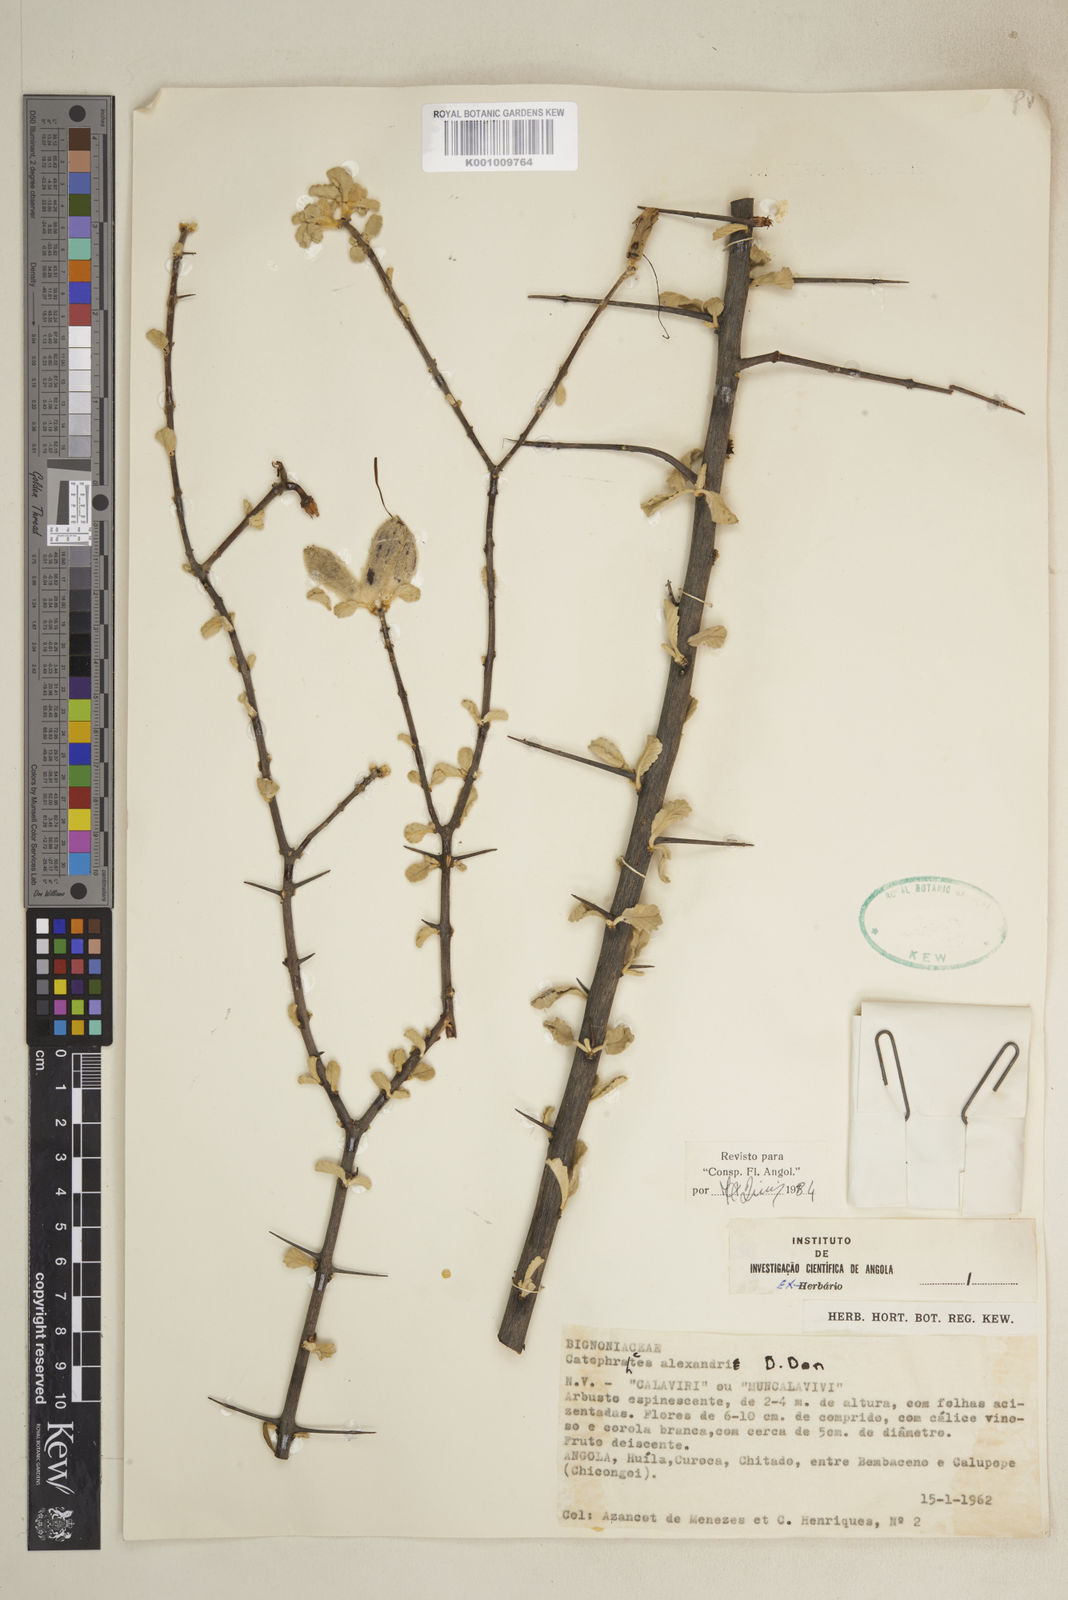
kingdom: Plantae
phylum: Tracheophyta
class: Magnoliopsida
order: Lamiales
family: Bignoniaceae
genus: Catophractes
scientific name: Catophractes alexandri
